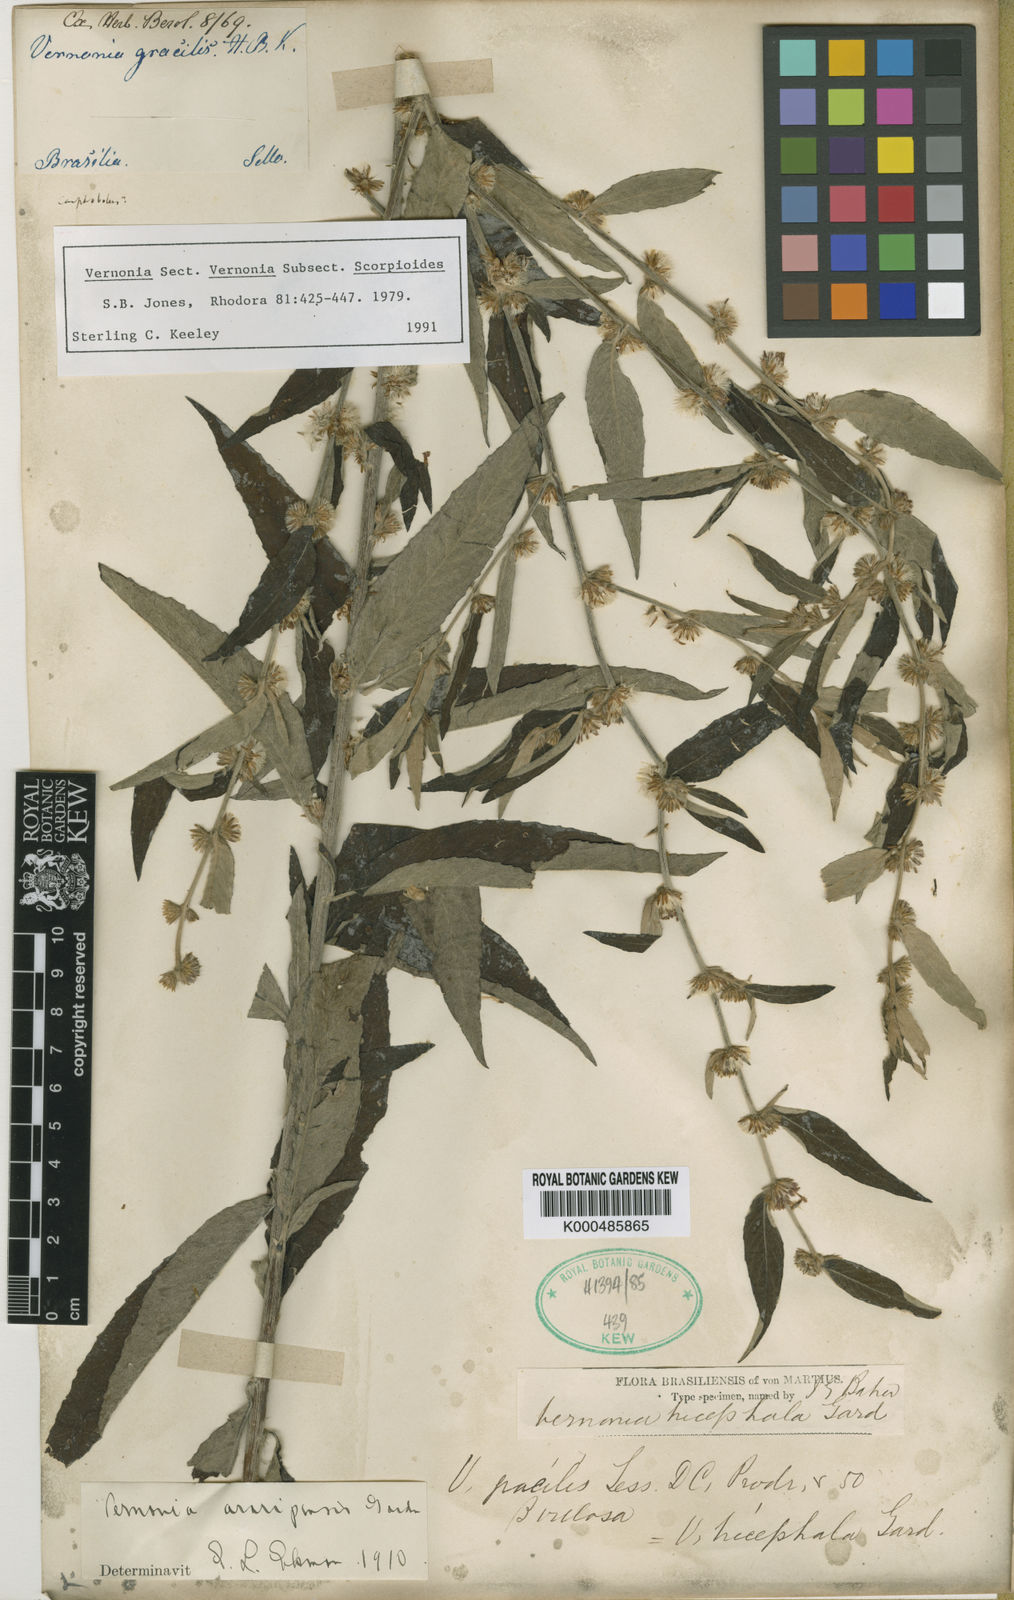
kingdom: Plantae
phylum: Tracheophyta
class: Magnoliopsida
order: Asterales
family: Asteraceae
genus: Lepidaploa
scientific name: Lepidaploa rufogrisea
